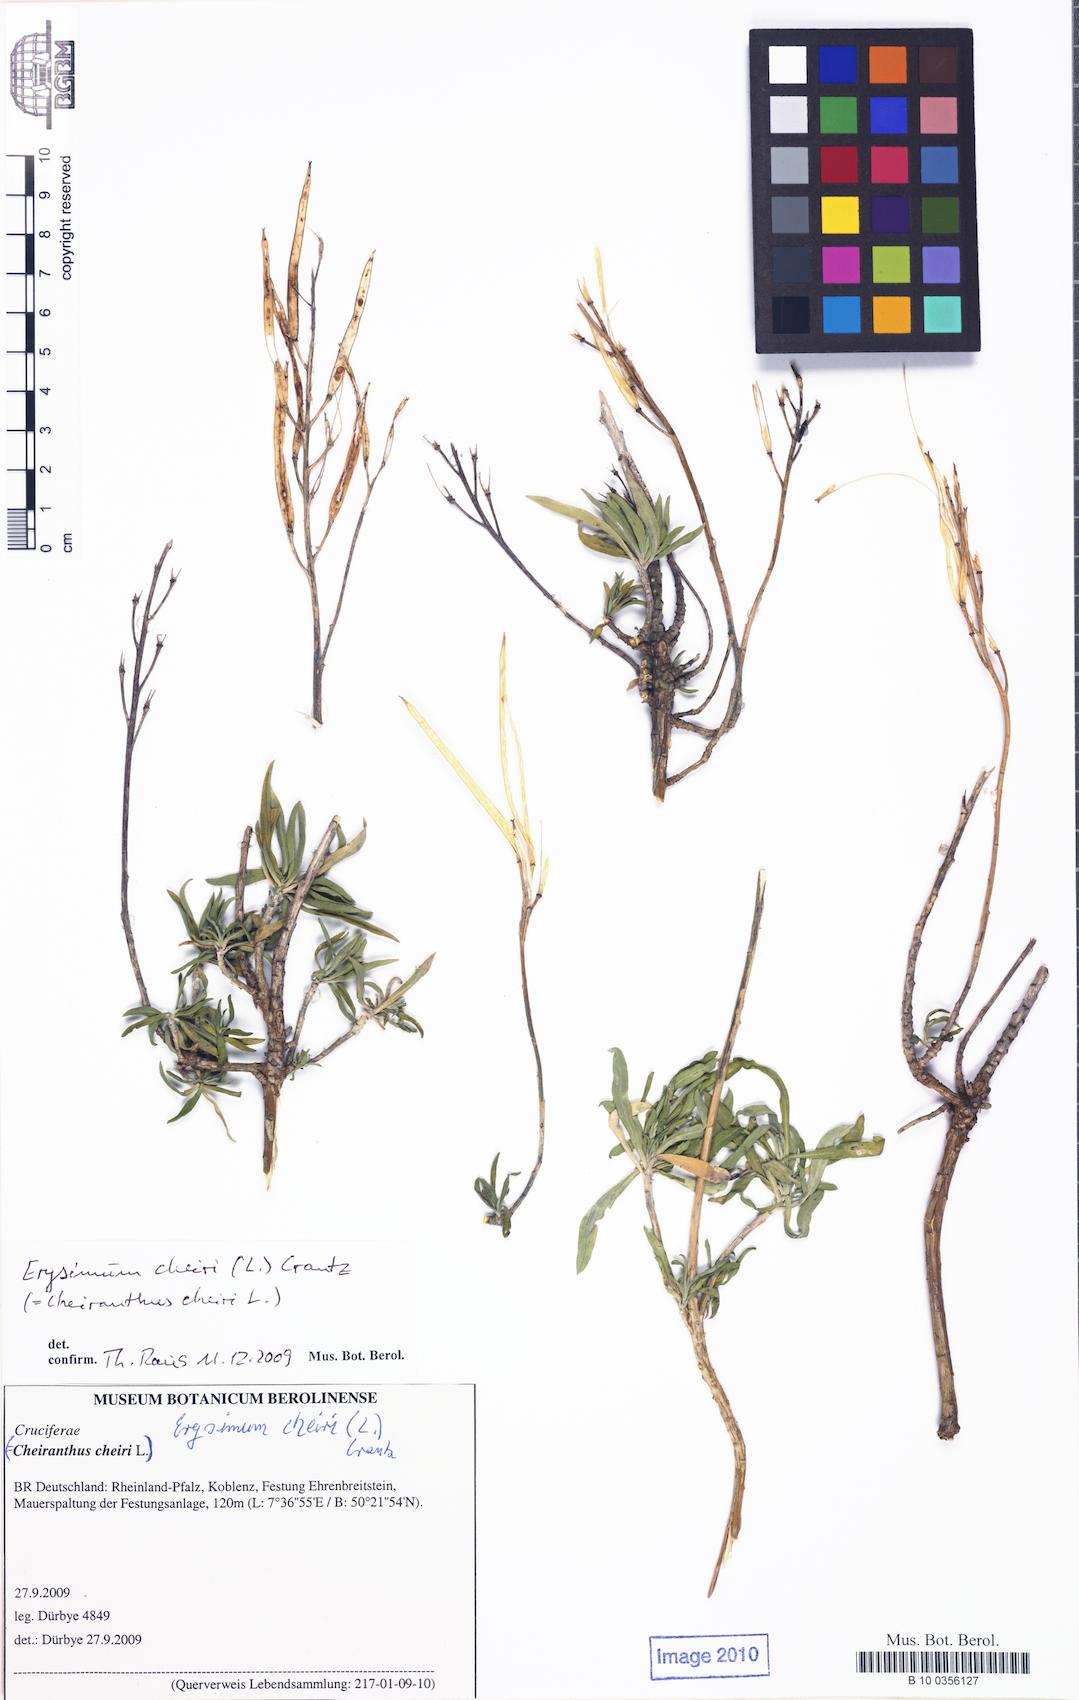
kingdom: Plantae
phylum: Tracheophyta
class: Magnoliopsida
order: Brassicales
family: Brassicaceae
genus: Erysimum
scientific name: Erysimum cheiri
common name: Wallflower
